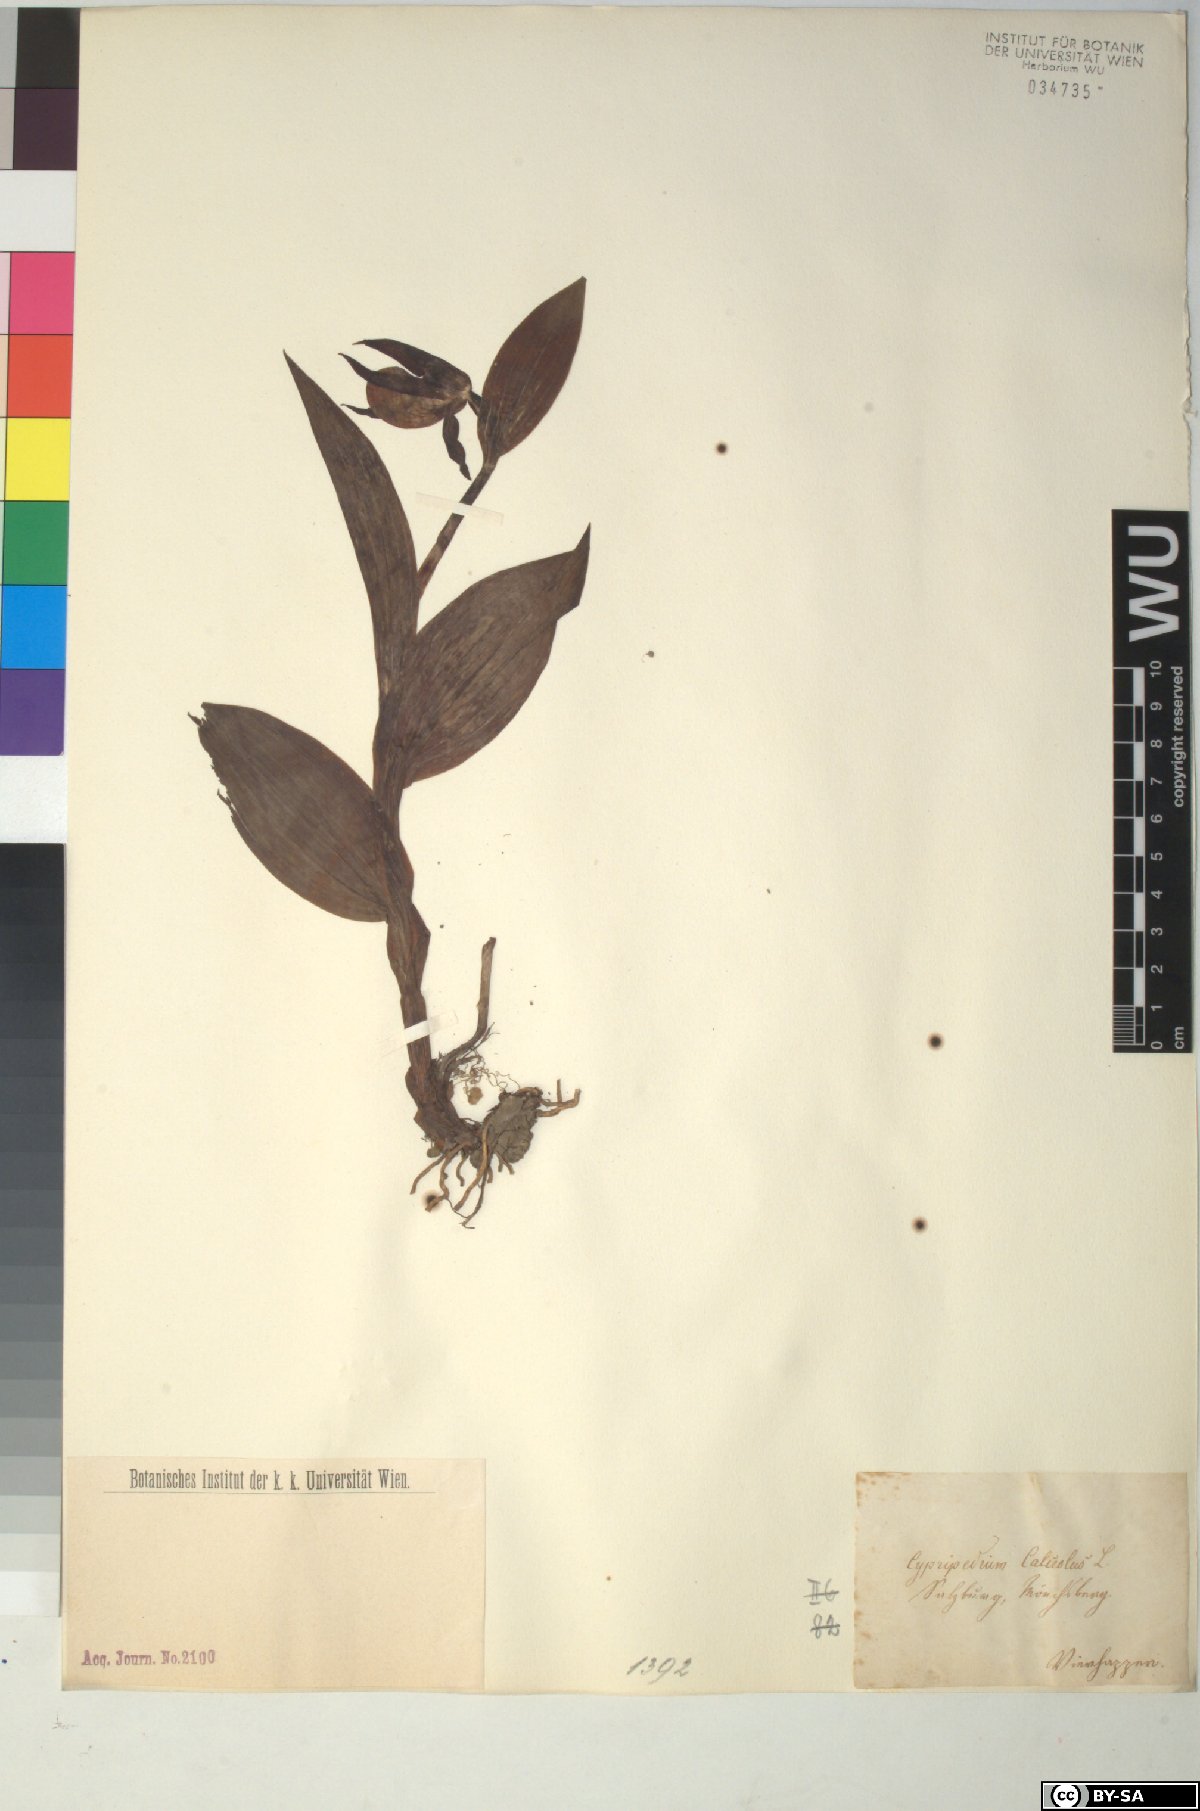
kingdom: Plantae
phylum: Tracheophyta
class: Liliopsida
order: Asparagales
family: Orchidaceae
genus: Cypripedium
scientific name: Cypripedium calceolus
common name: Lady's-slipper
